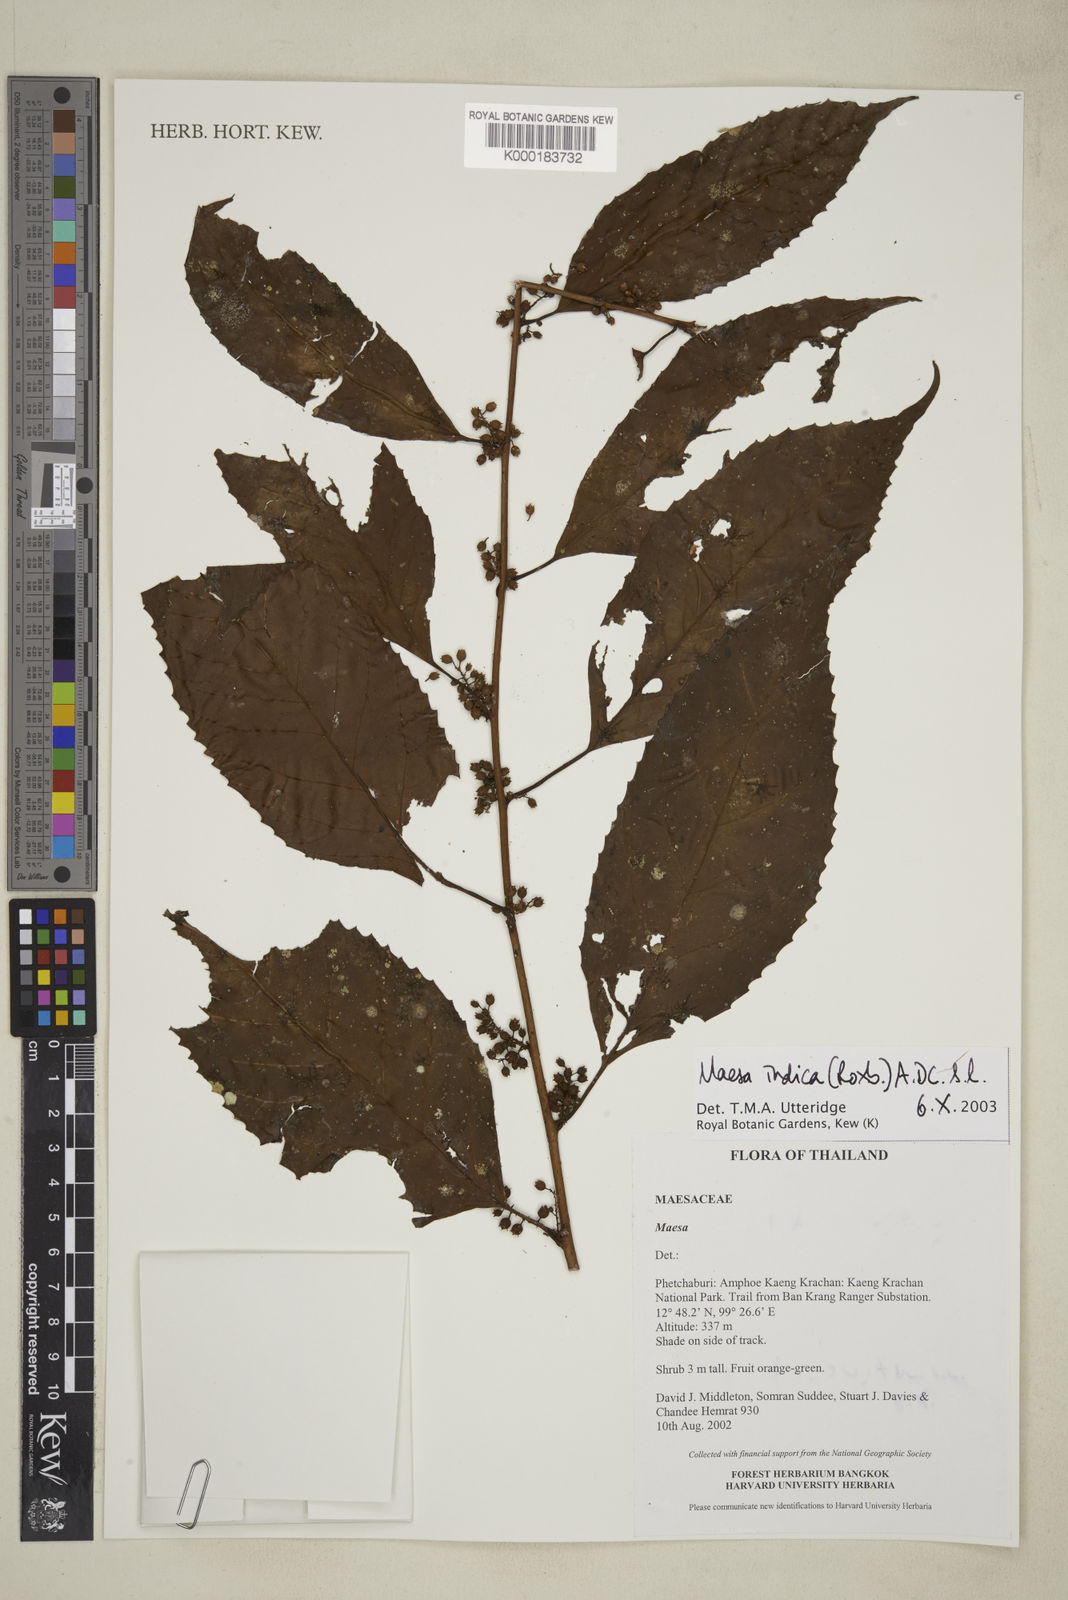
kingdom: Plantae
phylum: Tracheophyta
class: Magnoliopsida
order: Ericales
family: Primulaceae
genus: Maesa
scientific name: Maesa
